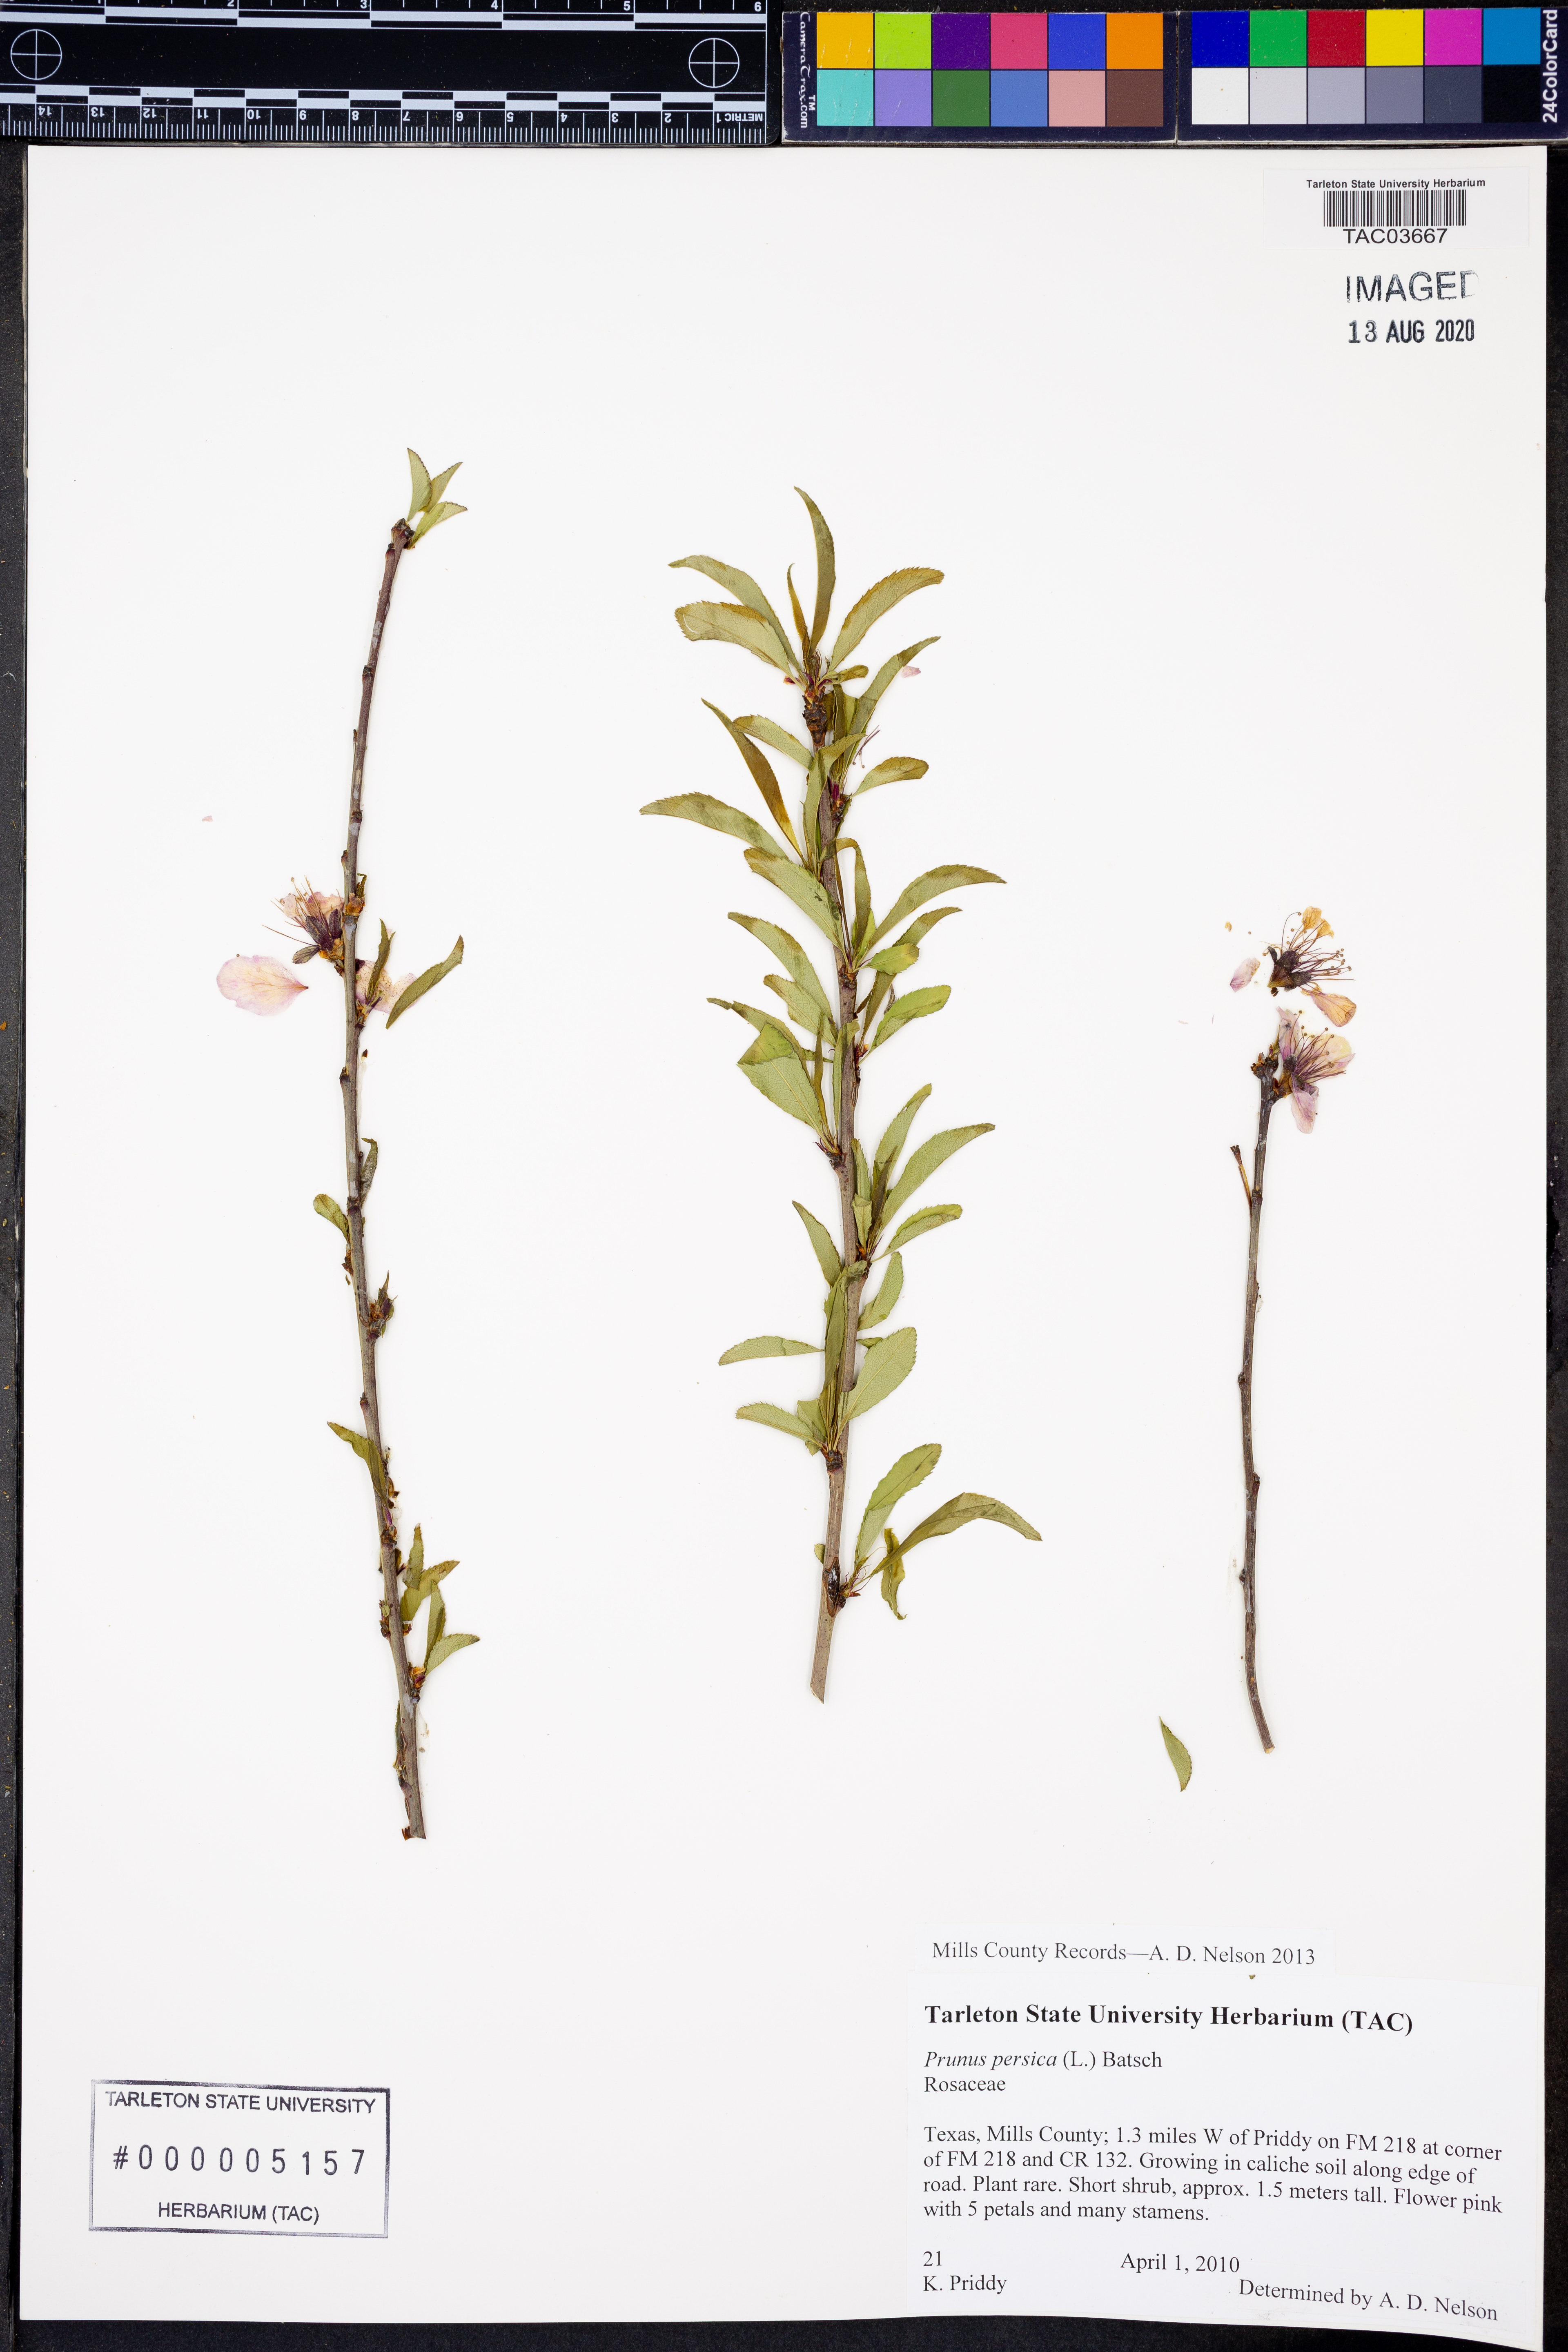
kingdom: Plantae
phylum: Tracheophyta
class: Magnoliopsida
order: Rosales
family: Rosaceae
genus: Prunus
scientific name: Prunus persica
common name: Peach
